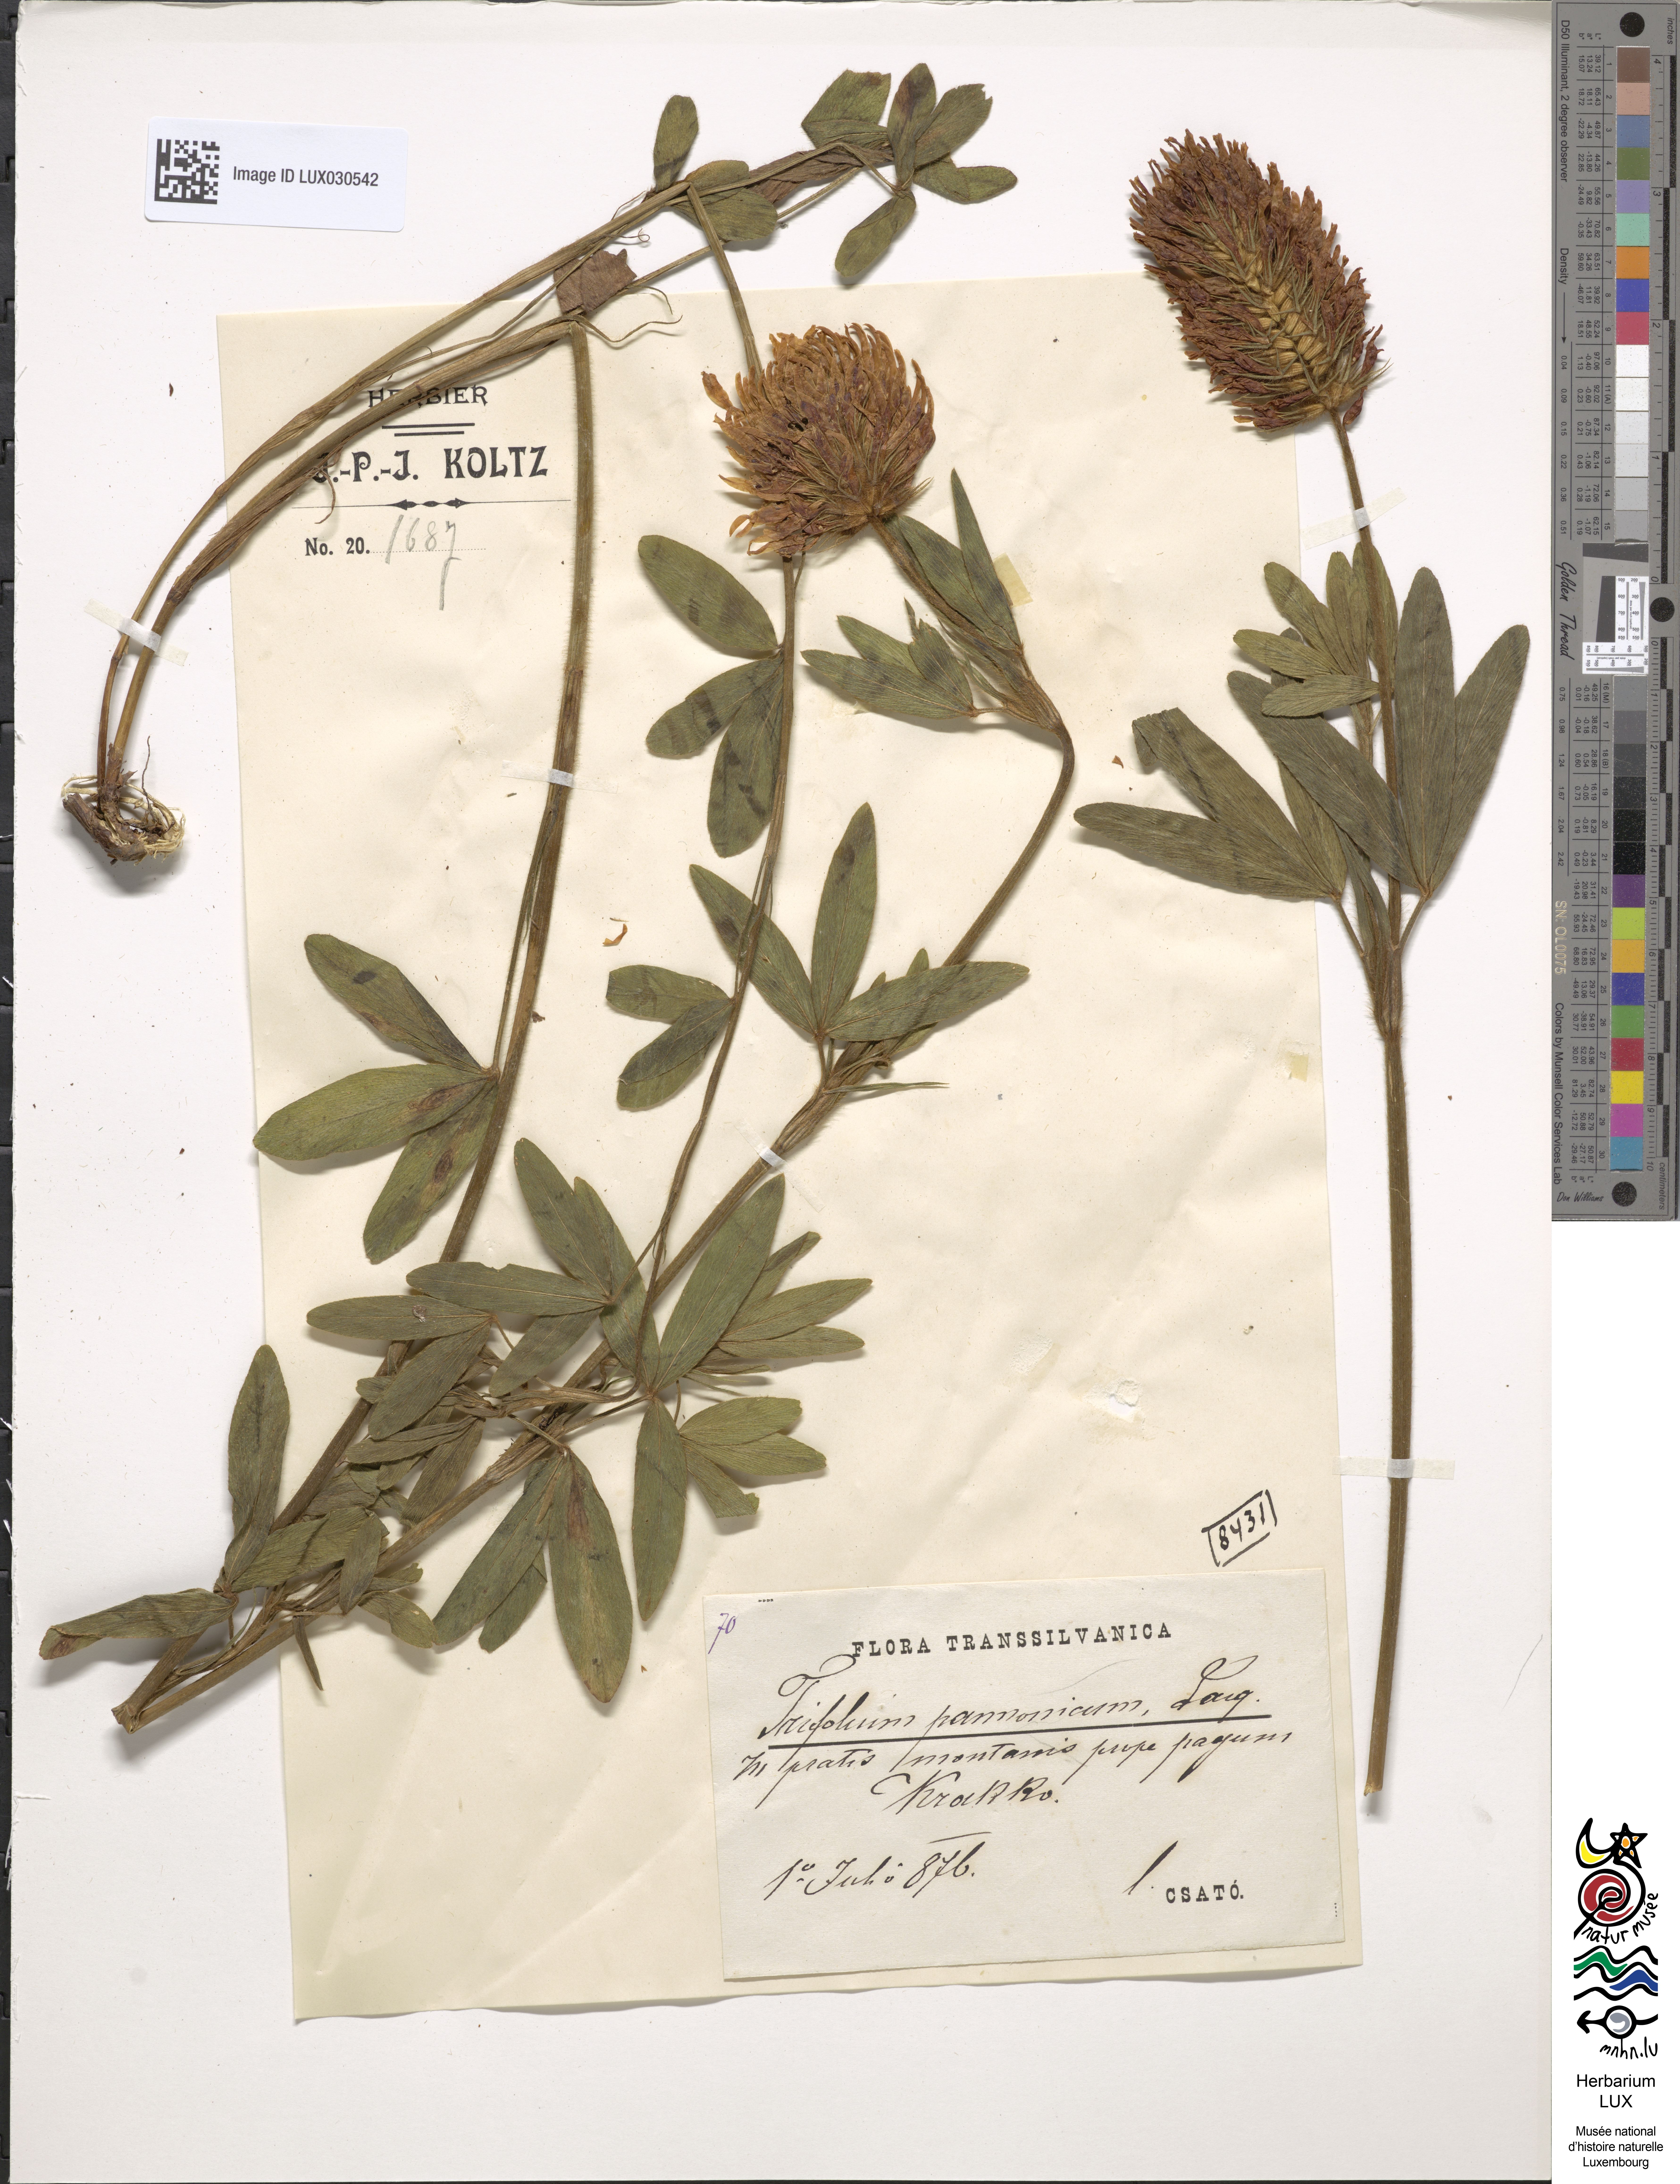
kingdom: Plantae
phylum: Tracheophyta
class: Magnoliopsida
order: Fabales
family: Fabaceae
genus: Trifolium
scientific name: Trifolium ochroleucon
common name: Sulphur clover
